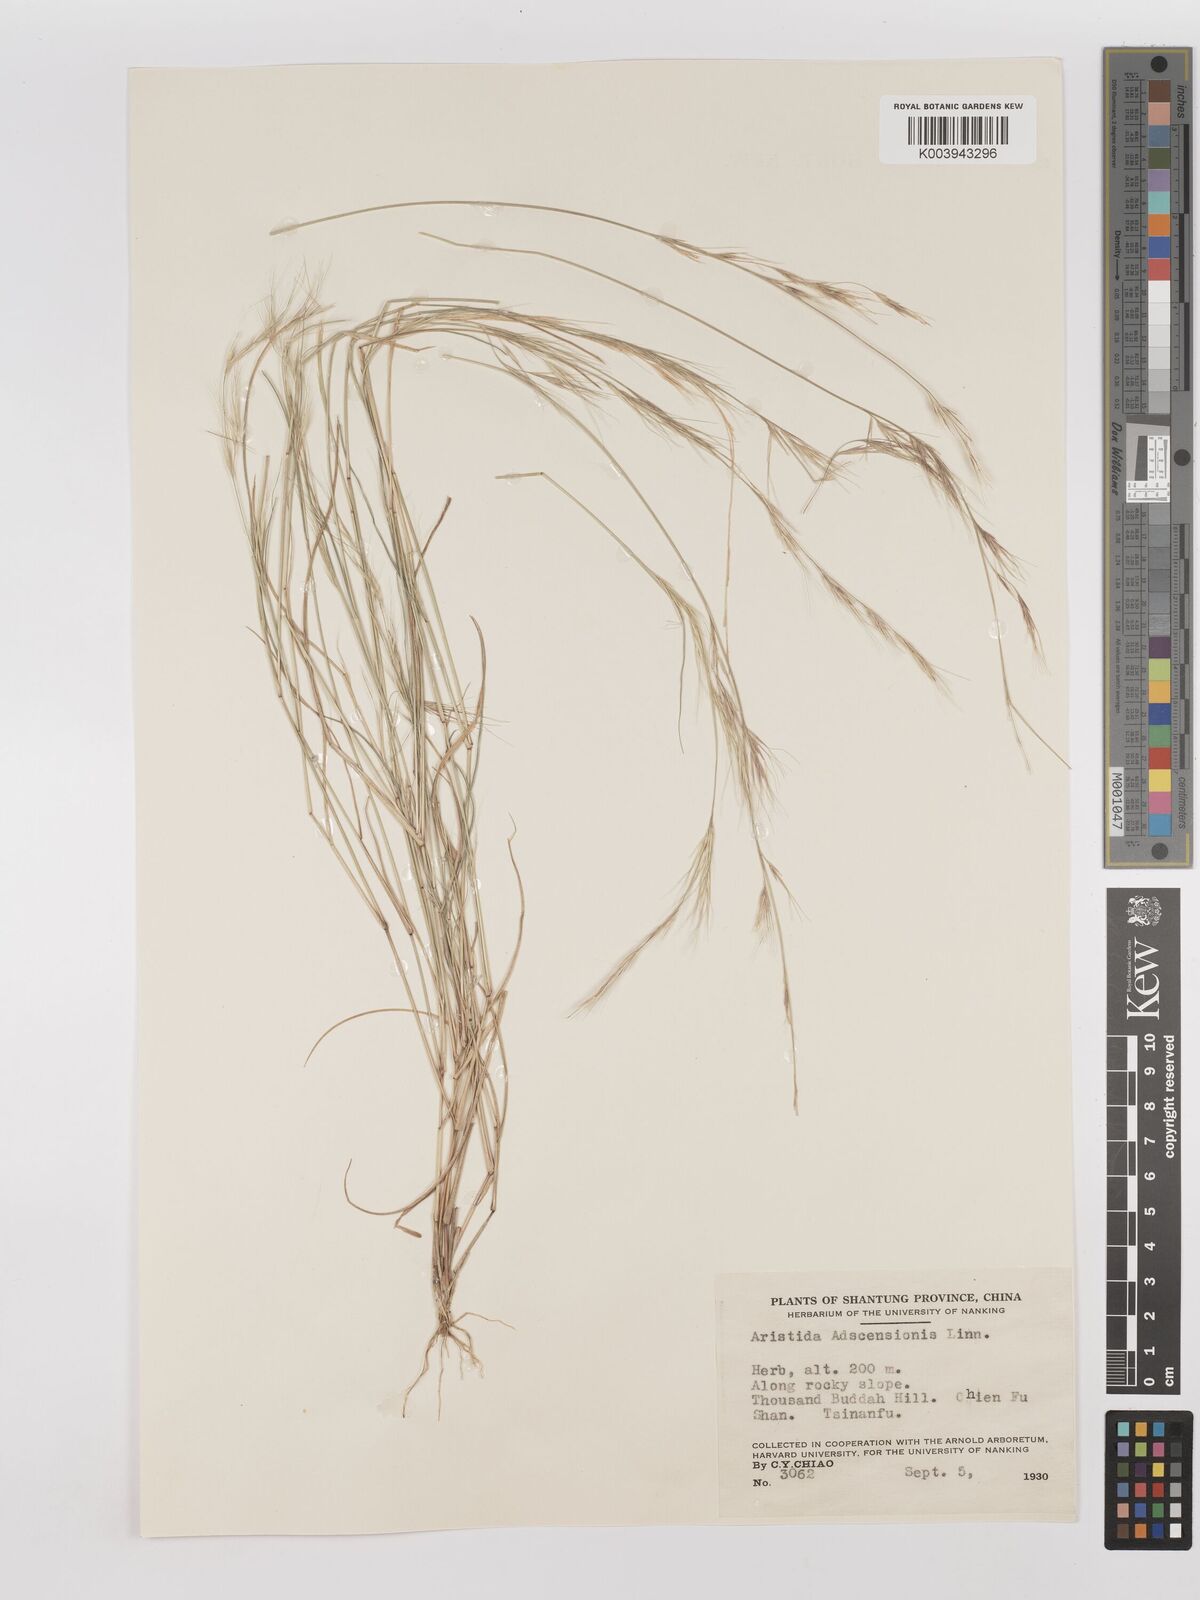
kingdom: Plantae
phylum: Tracheophyta
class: Liliopsida
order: Poales
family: Poaceae
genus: Aristida
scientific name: Aristida adscensionis
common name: Sixweeks threeawn
